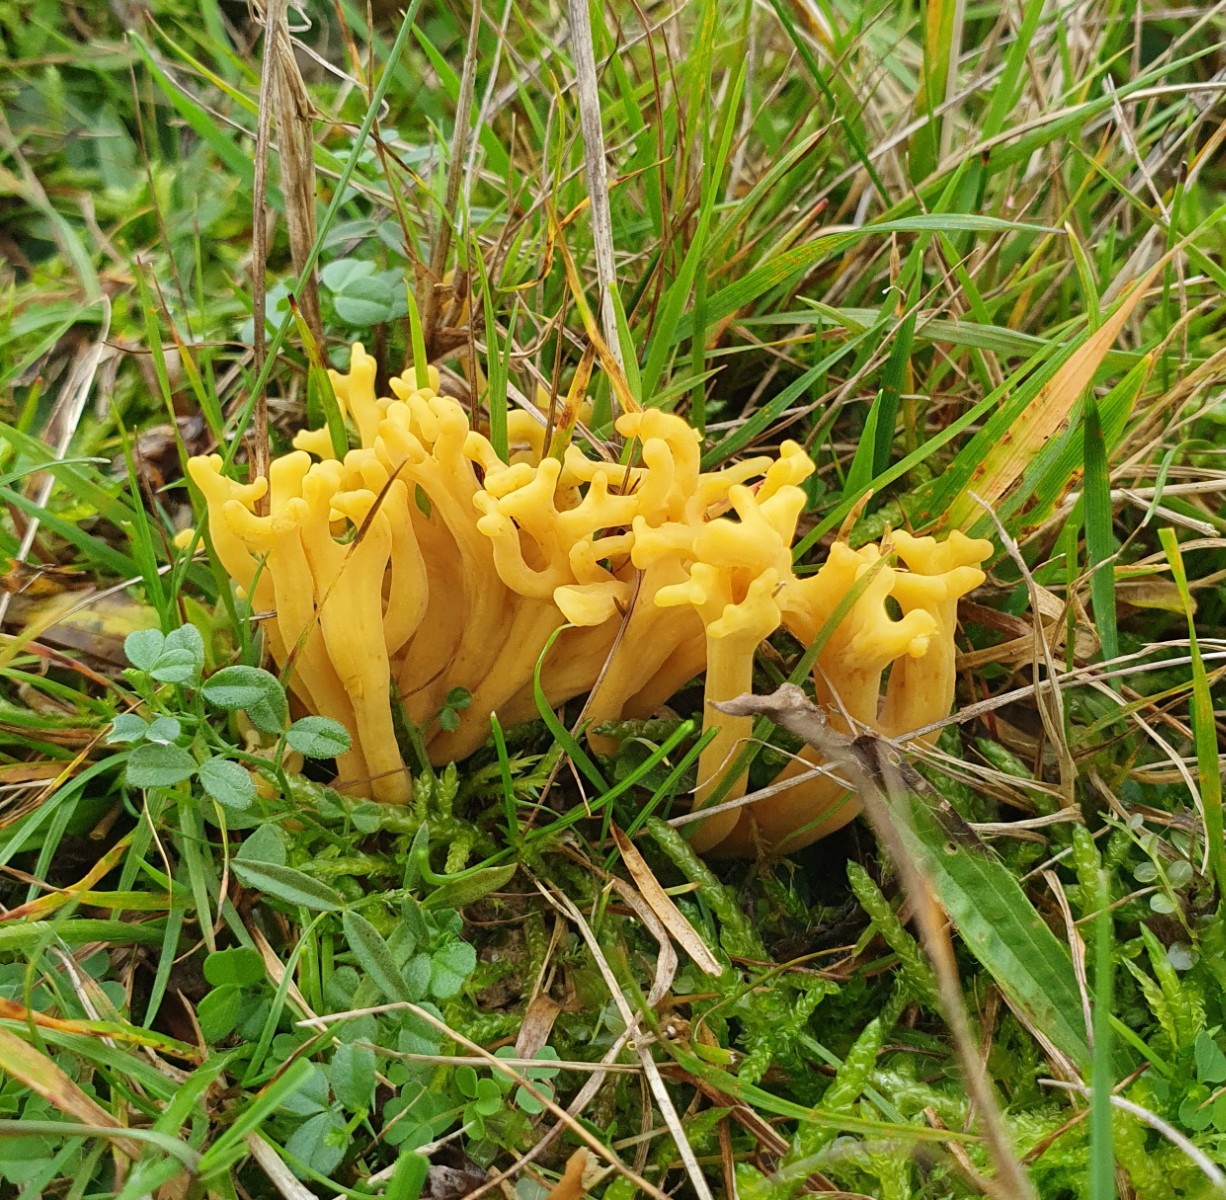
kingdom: Fungi
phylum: Basidiomycota
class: Agaricomycetes
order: Agaricales
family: Clavariaceae
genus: Clavulinopsis
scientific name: Clavulinopsis corniculata
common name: eng-køllesvamp
